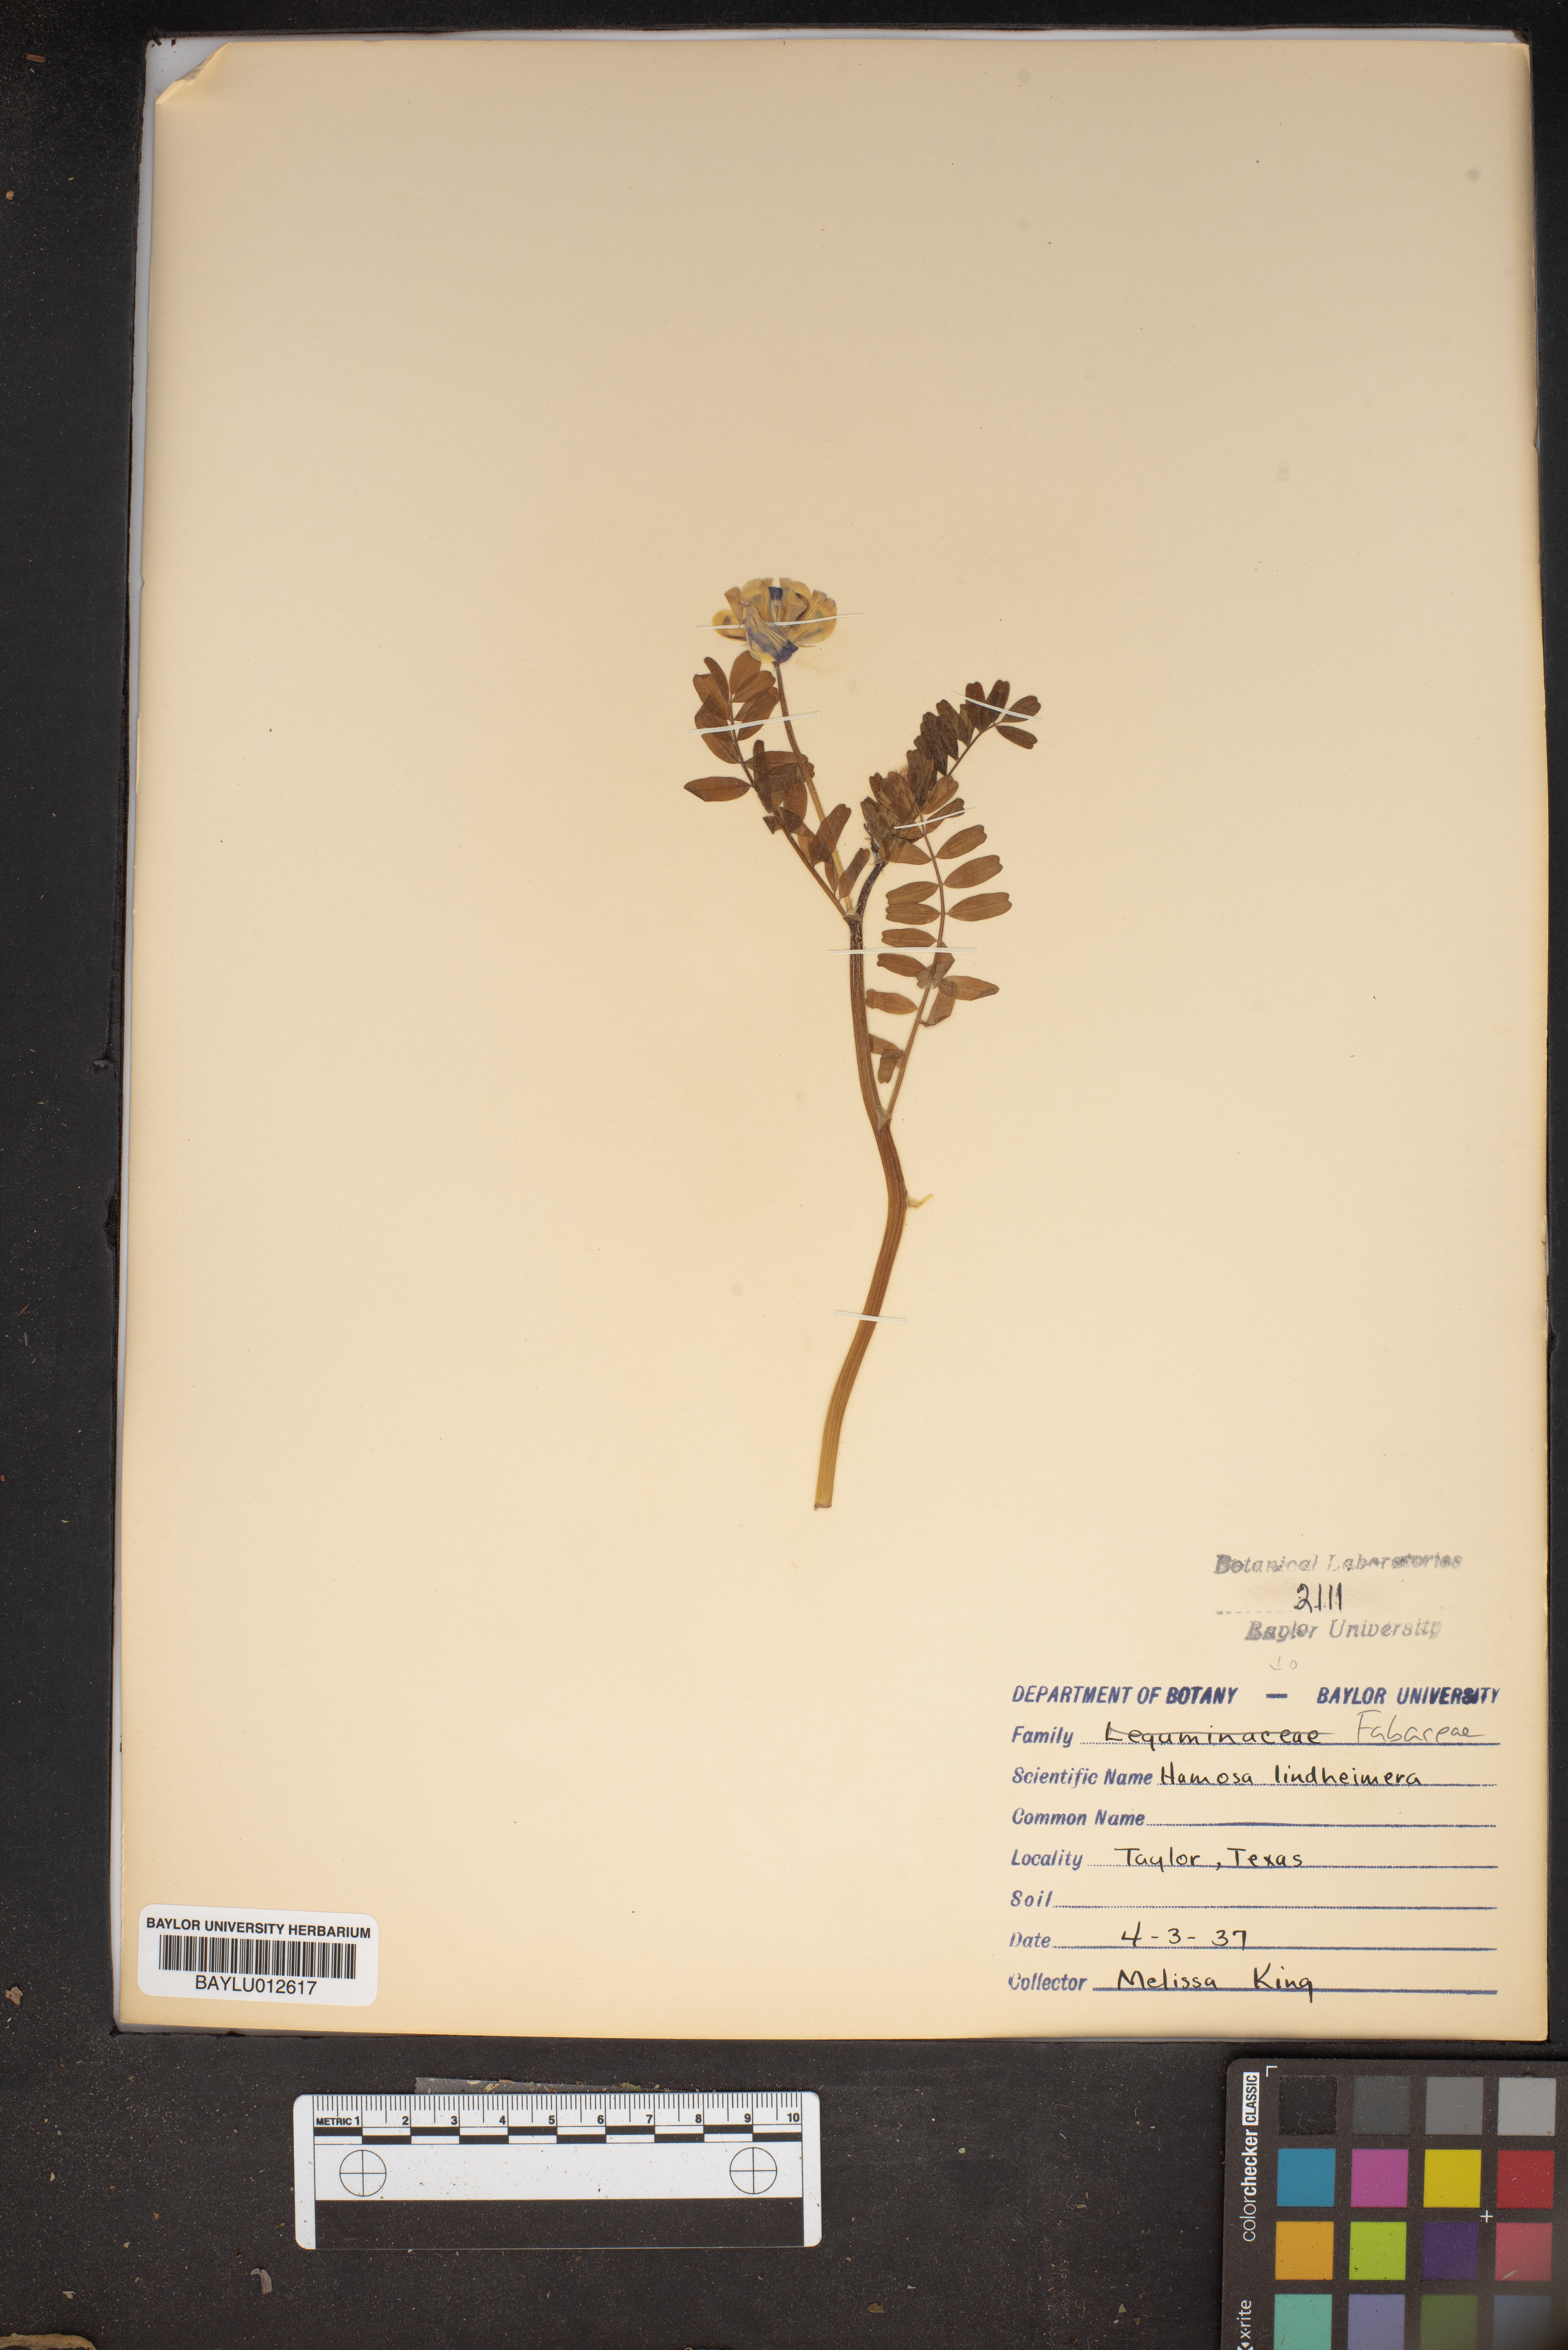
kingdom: Plantae
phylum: Tracheophyta
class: Magnoliopsida
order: Fabales
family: Fabaceae
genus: Astragalus
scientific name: Astragalus lindheimeri
